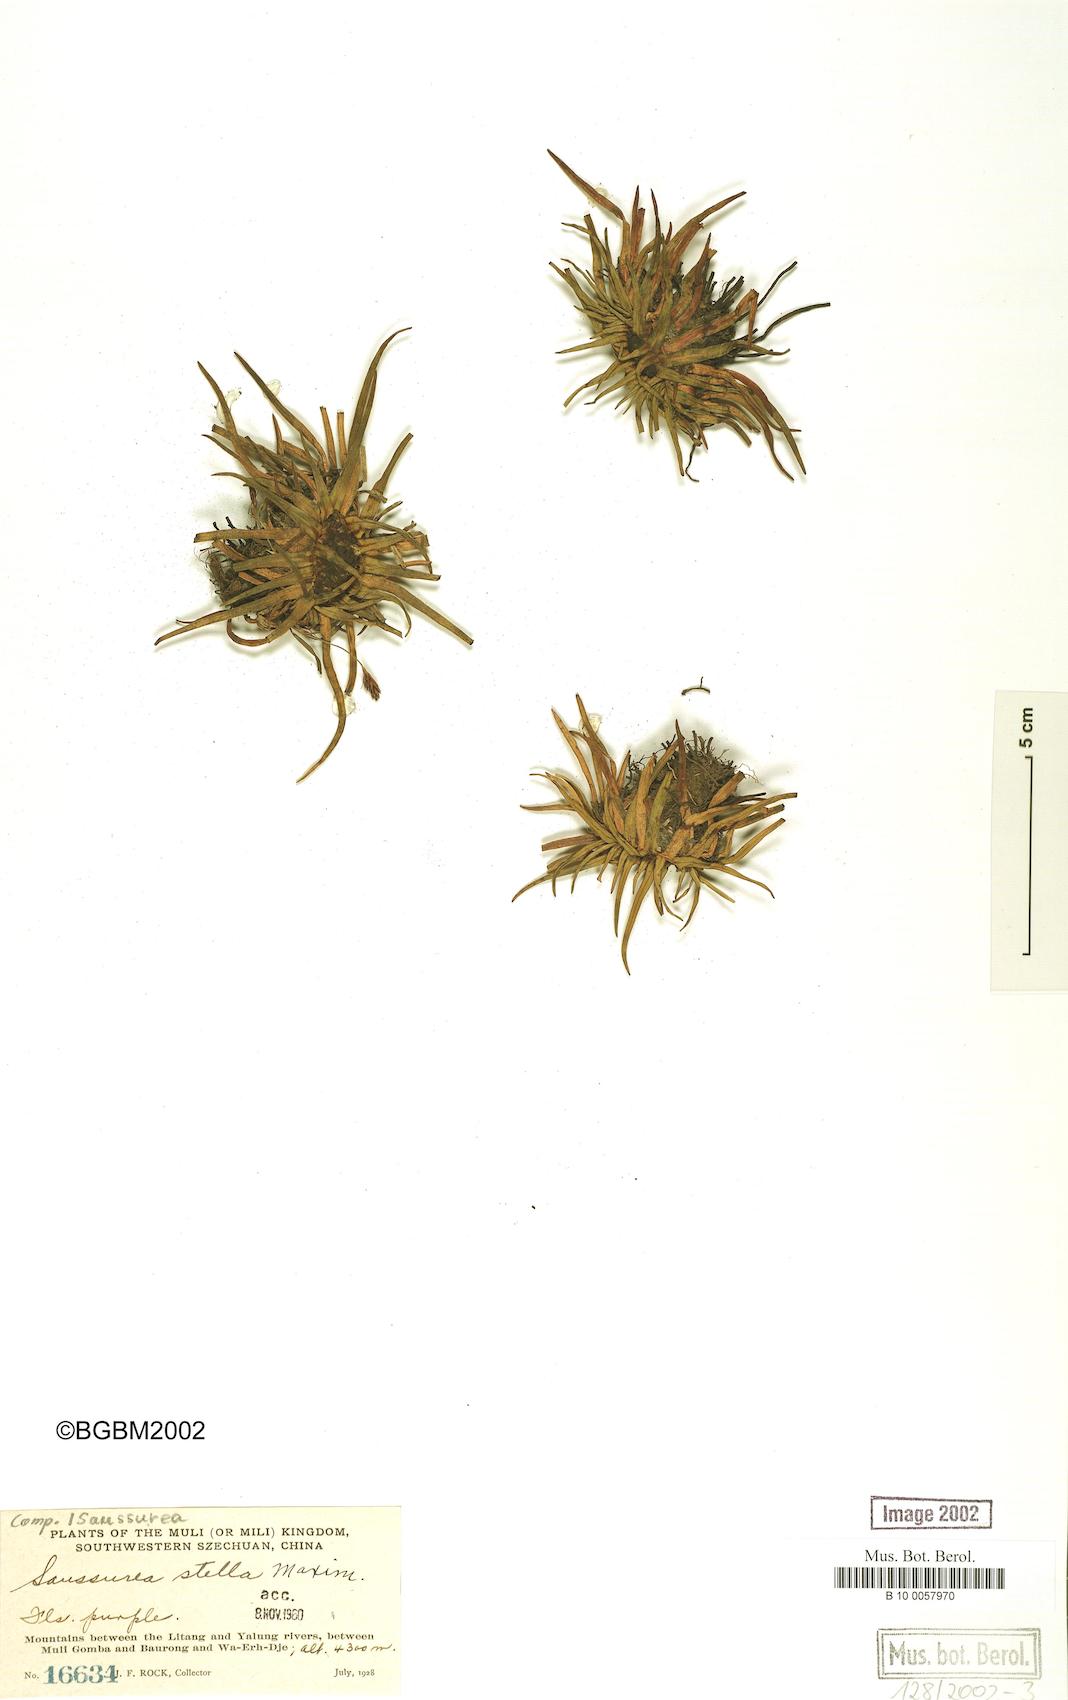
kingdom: Plantae
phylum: Tracheophyta
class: Magnoliopsida
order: Asterales
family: Asteraceae
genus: Saussurea
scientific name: Saussurea stella
